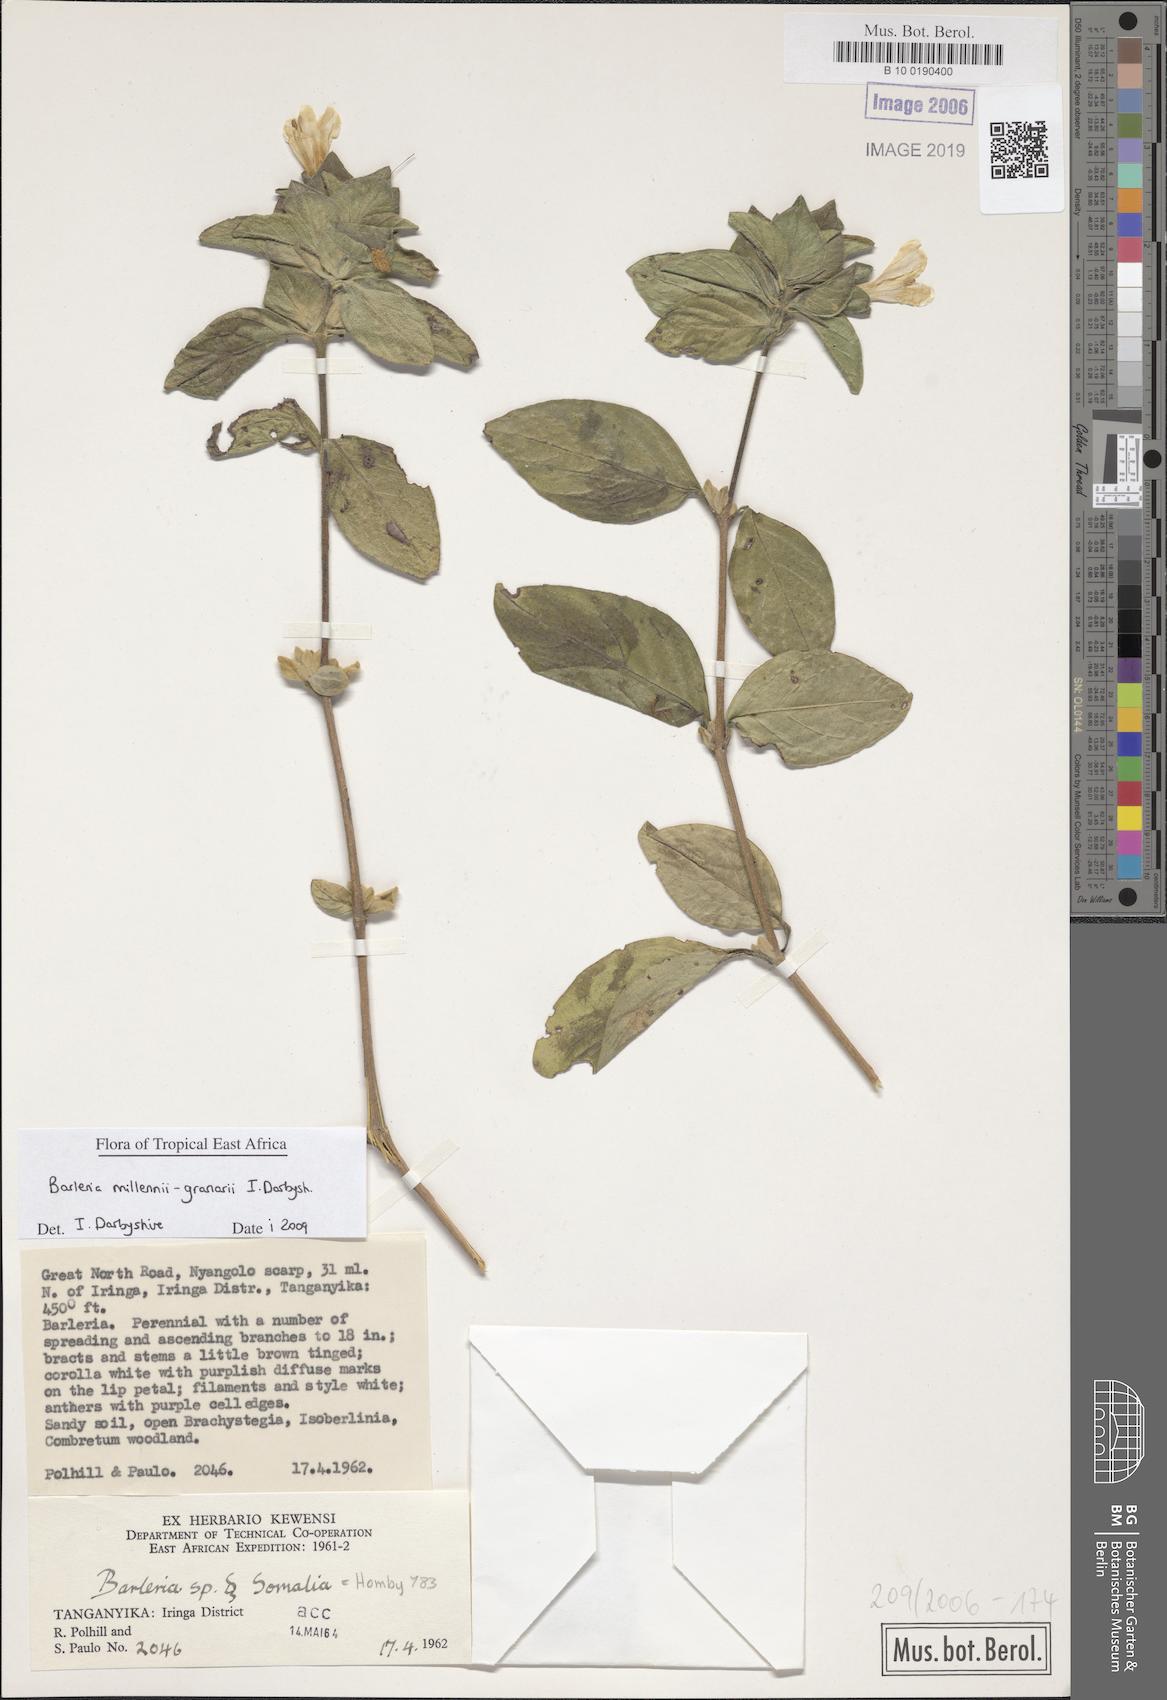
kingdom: Plantae
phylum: Tracheophyta
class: Magnoliopsida
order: Lamiales
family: Acanthaceae
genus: Barleria
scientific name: Barleria
